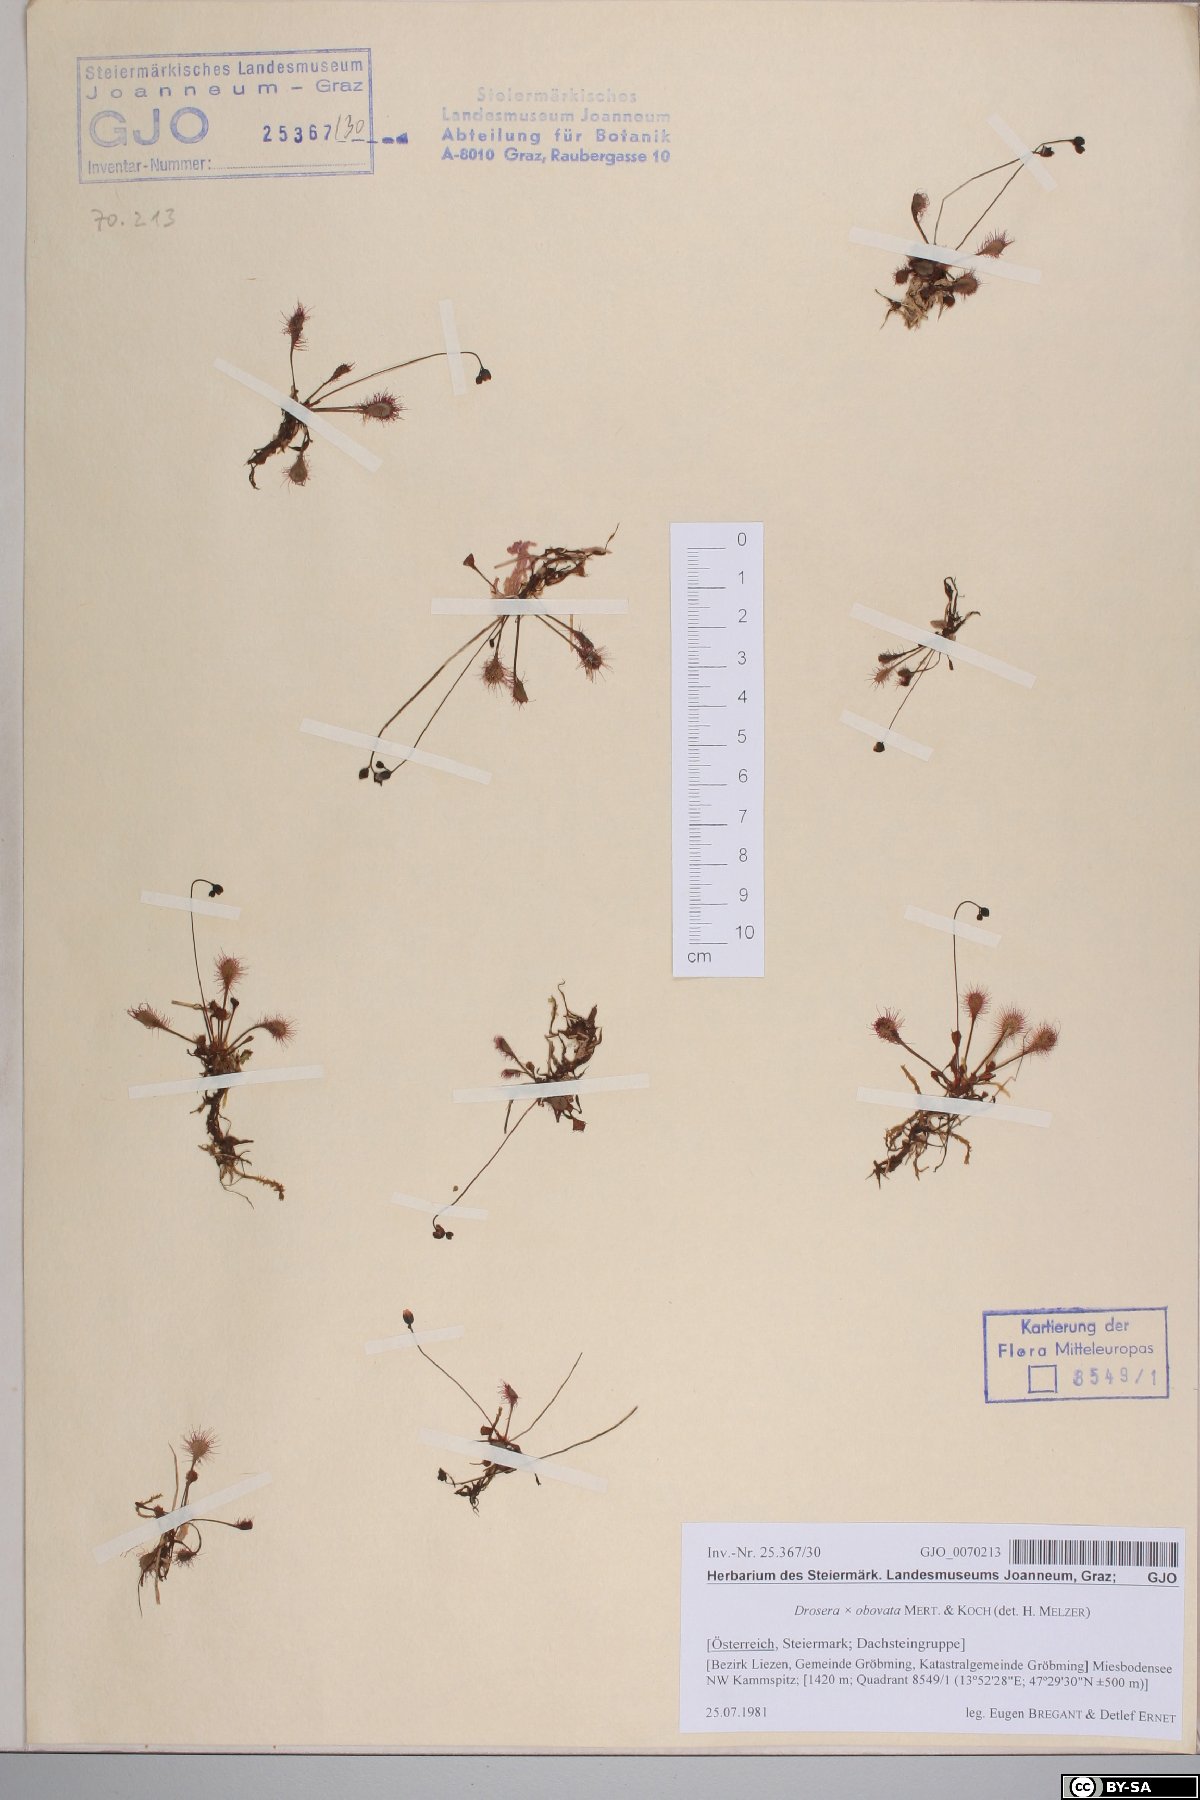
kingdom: Plantae
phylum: Tracheophyta
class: Magnoliopsida
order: Caryophyllales
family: Droseraceae
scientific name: Droseraceae
